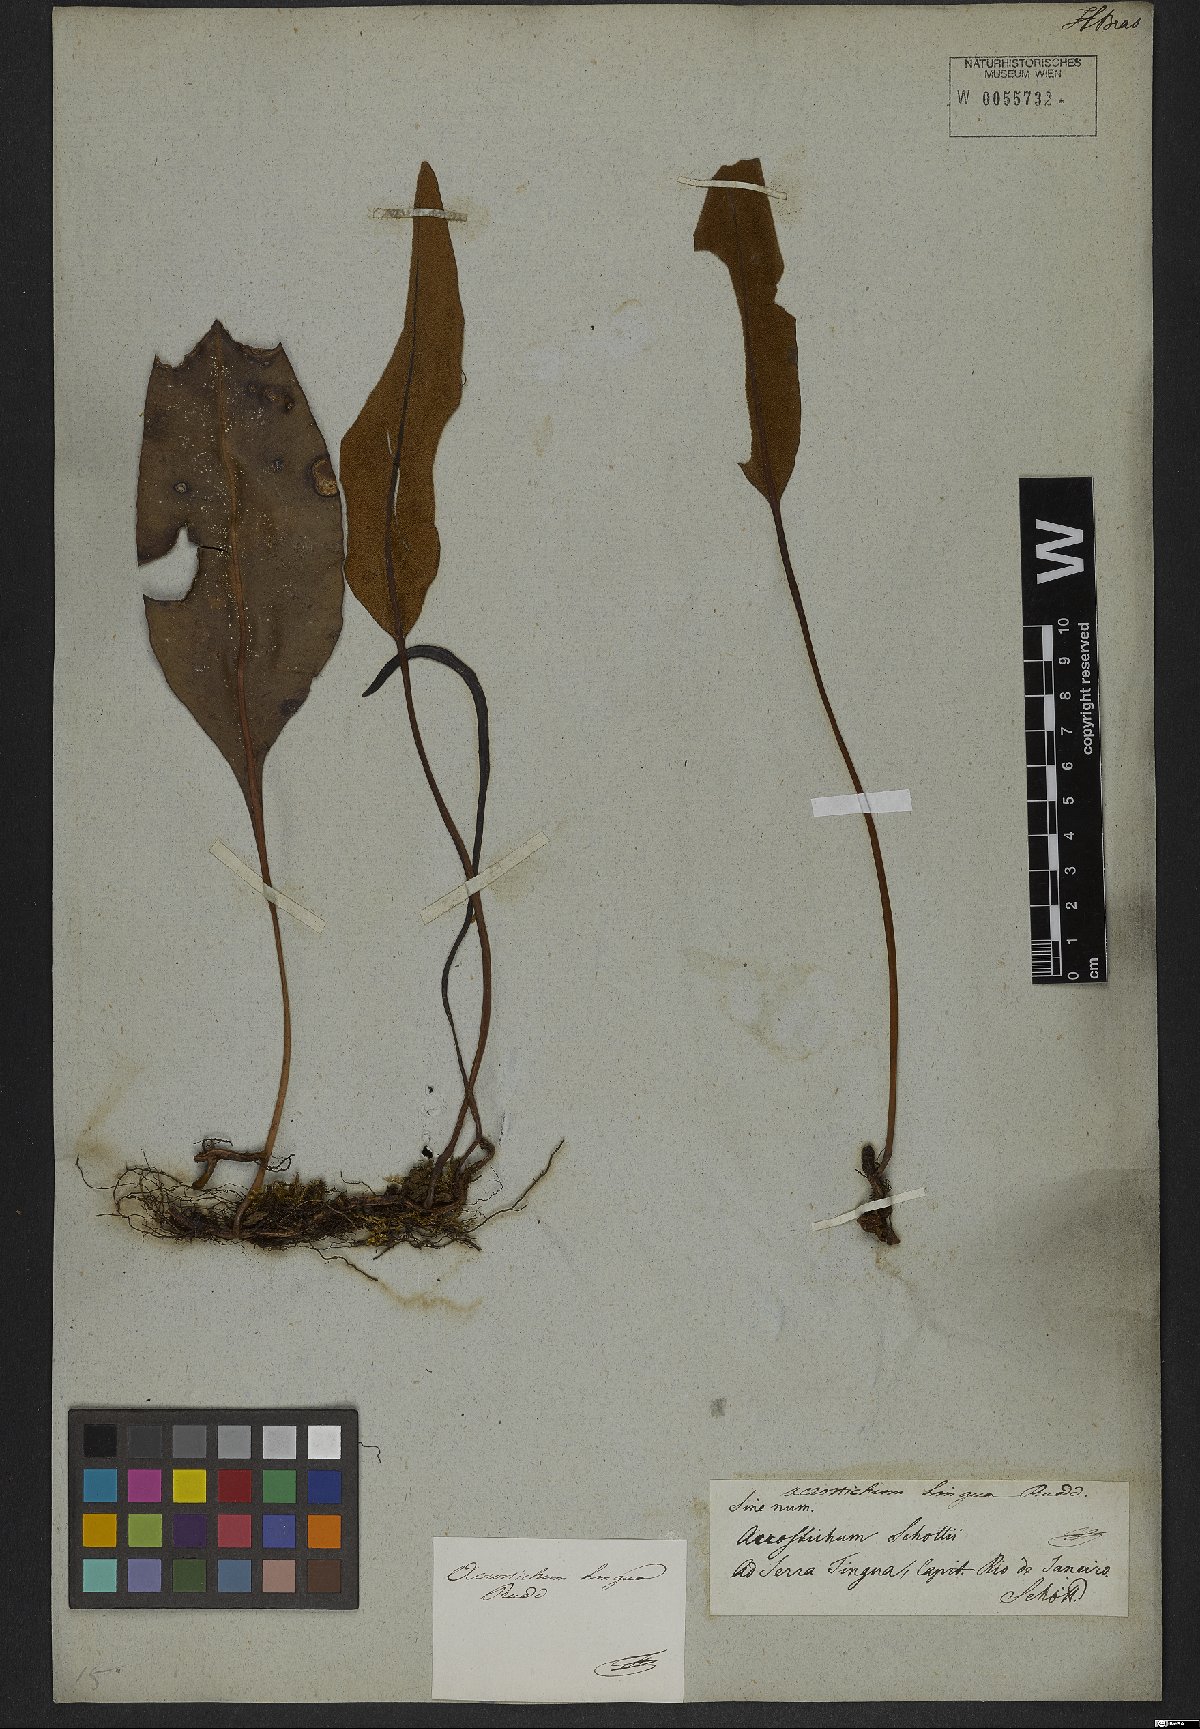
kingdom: Plantae
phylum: Tracheophyta
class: Polypodiopsida
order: Polypodiales
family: Dryopteridaceae
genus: Elaphoglossum
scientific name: Elaphoglossum brachyneuron
